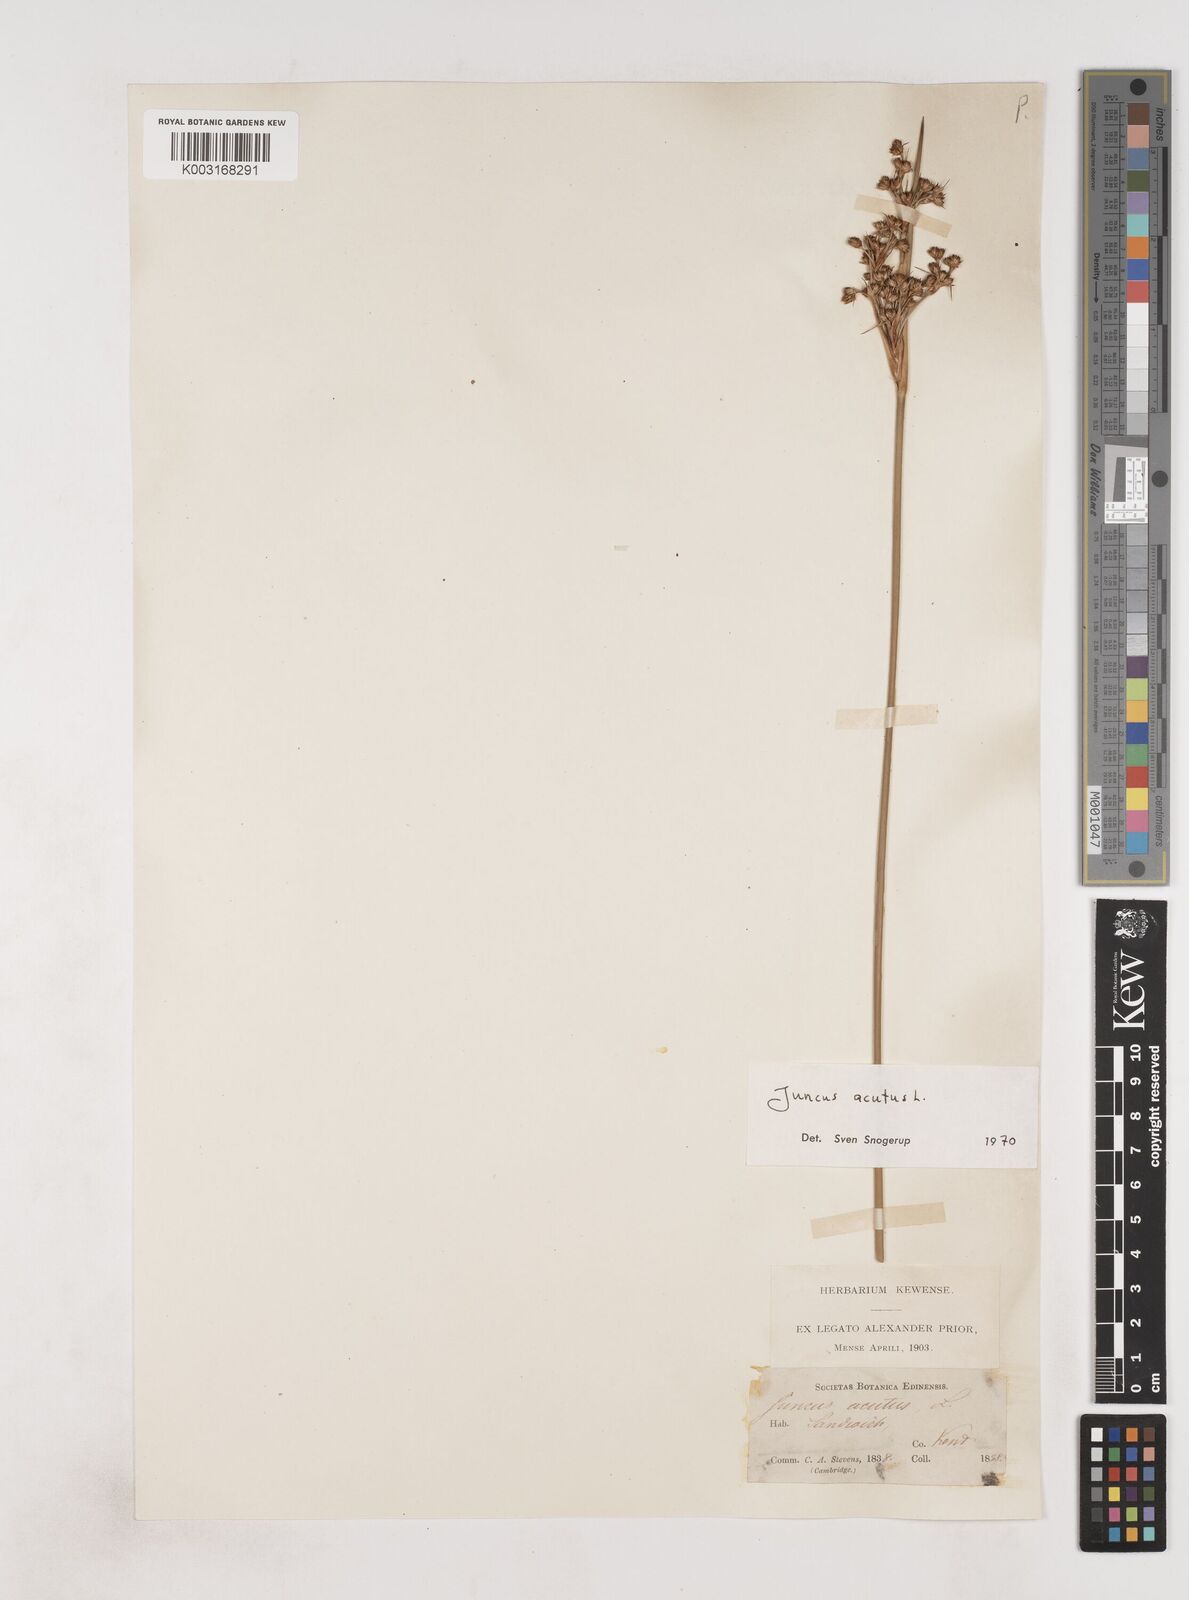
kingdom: Plantae
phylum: Tracheophyta
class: Liliopsida
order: Poales
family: Juncaceae
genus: Juncus
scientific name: Juncus acutus
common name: Sharp rush
